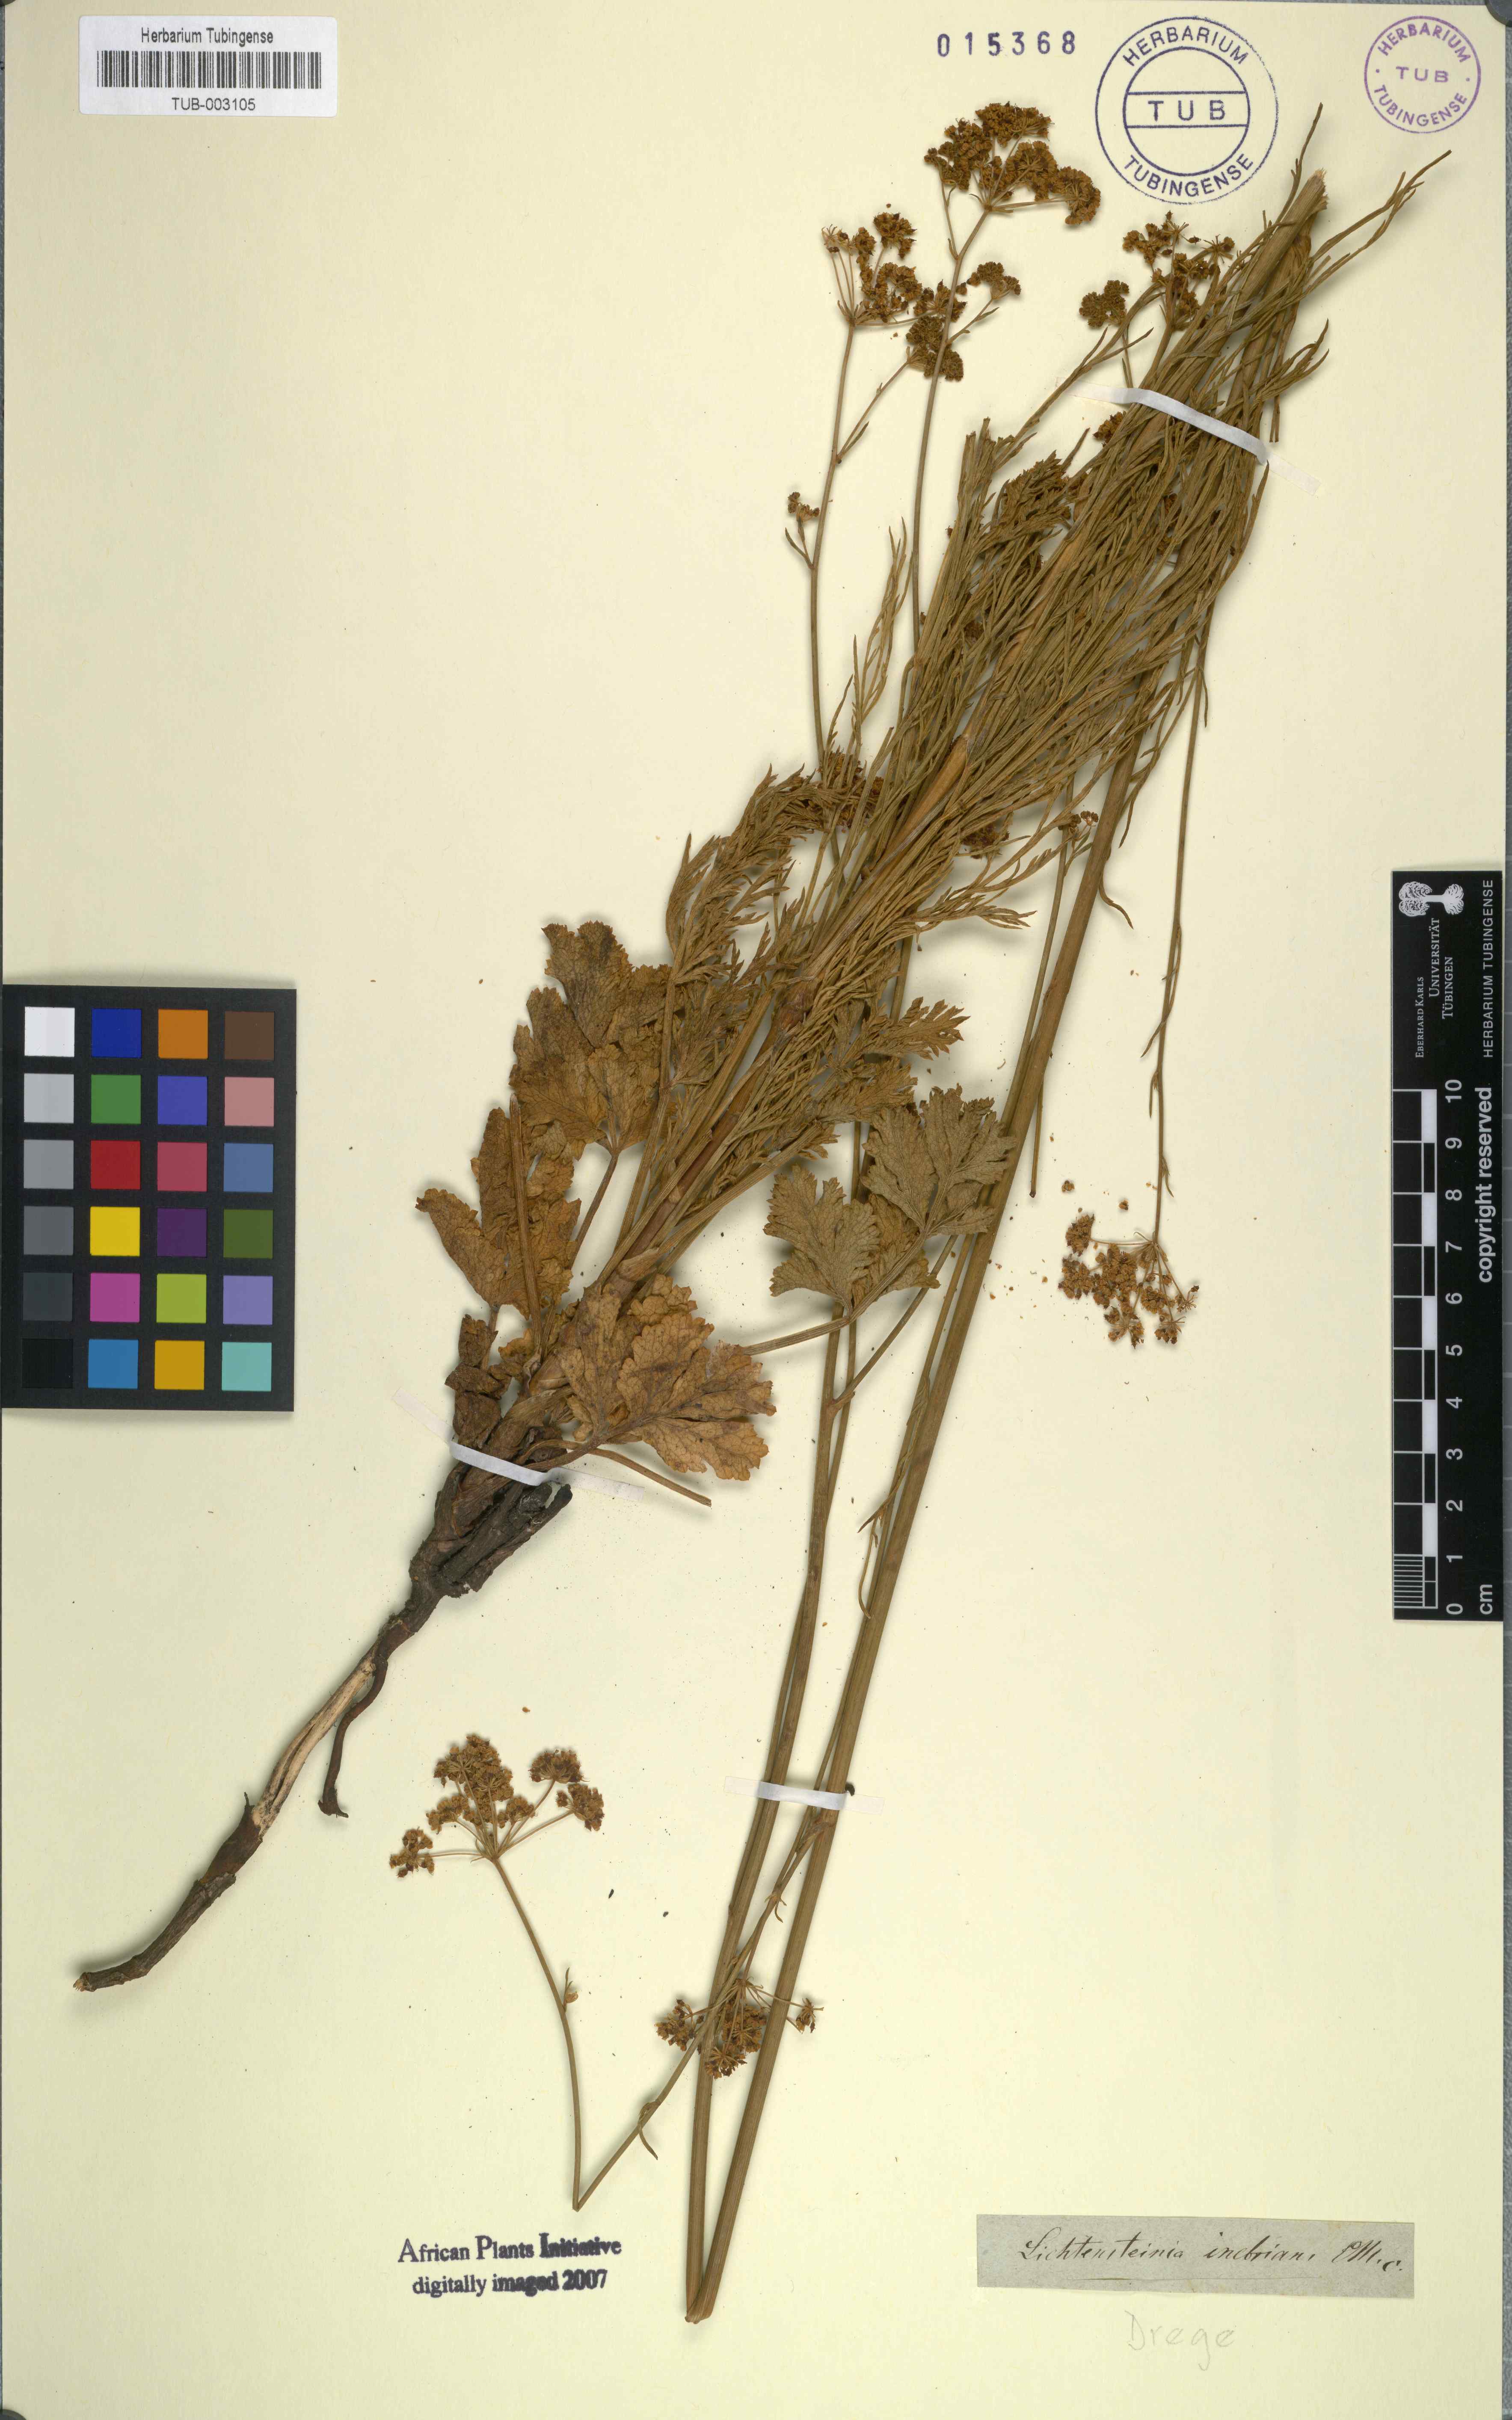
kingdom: Plantae
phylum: Tracheophyta
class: Magnoliopsida
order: Apiales
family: Apiaceae
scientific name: Apiaceae
